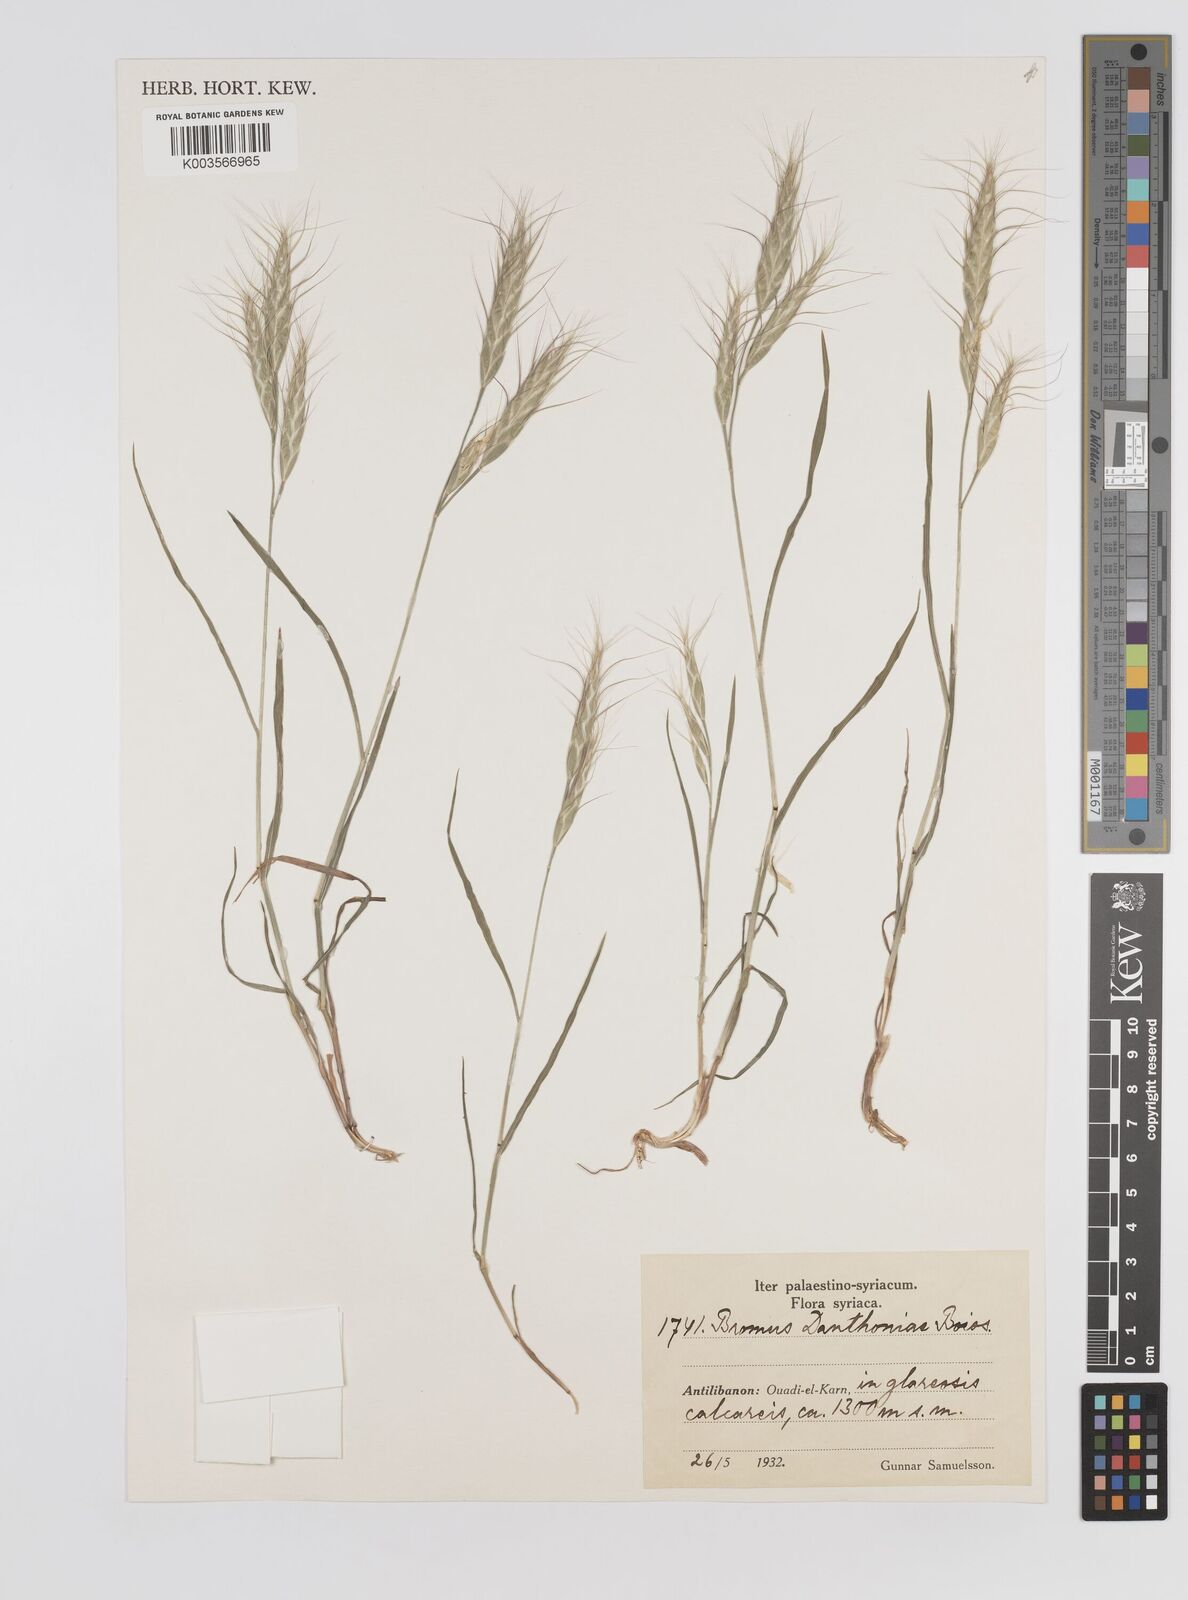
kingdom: Plantae
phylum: Tracheophyta
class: Liliopsida
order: Poales
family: Poaceae
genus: Bromus
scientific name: Bromus danthoniae
